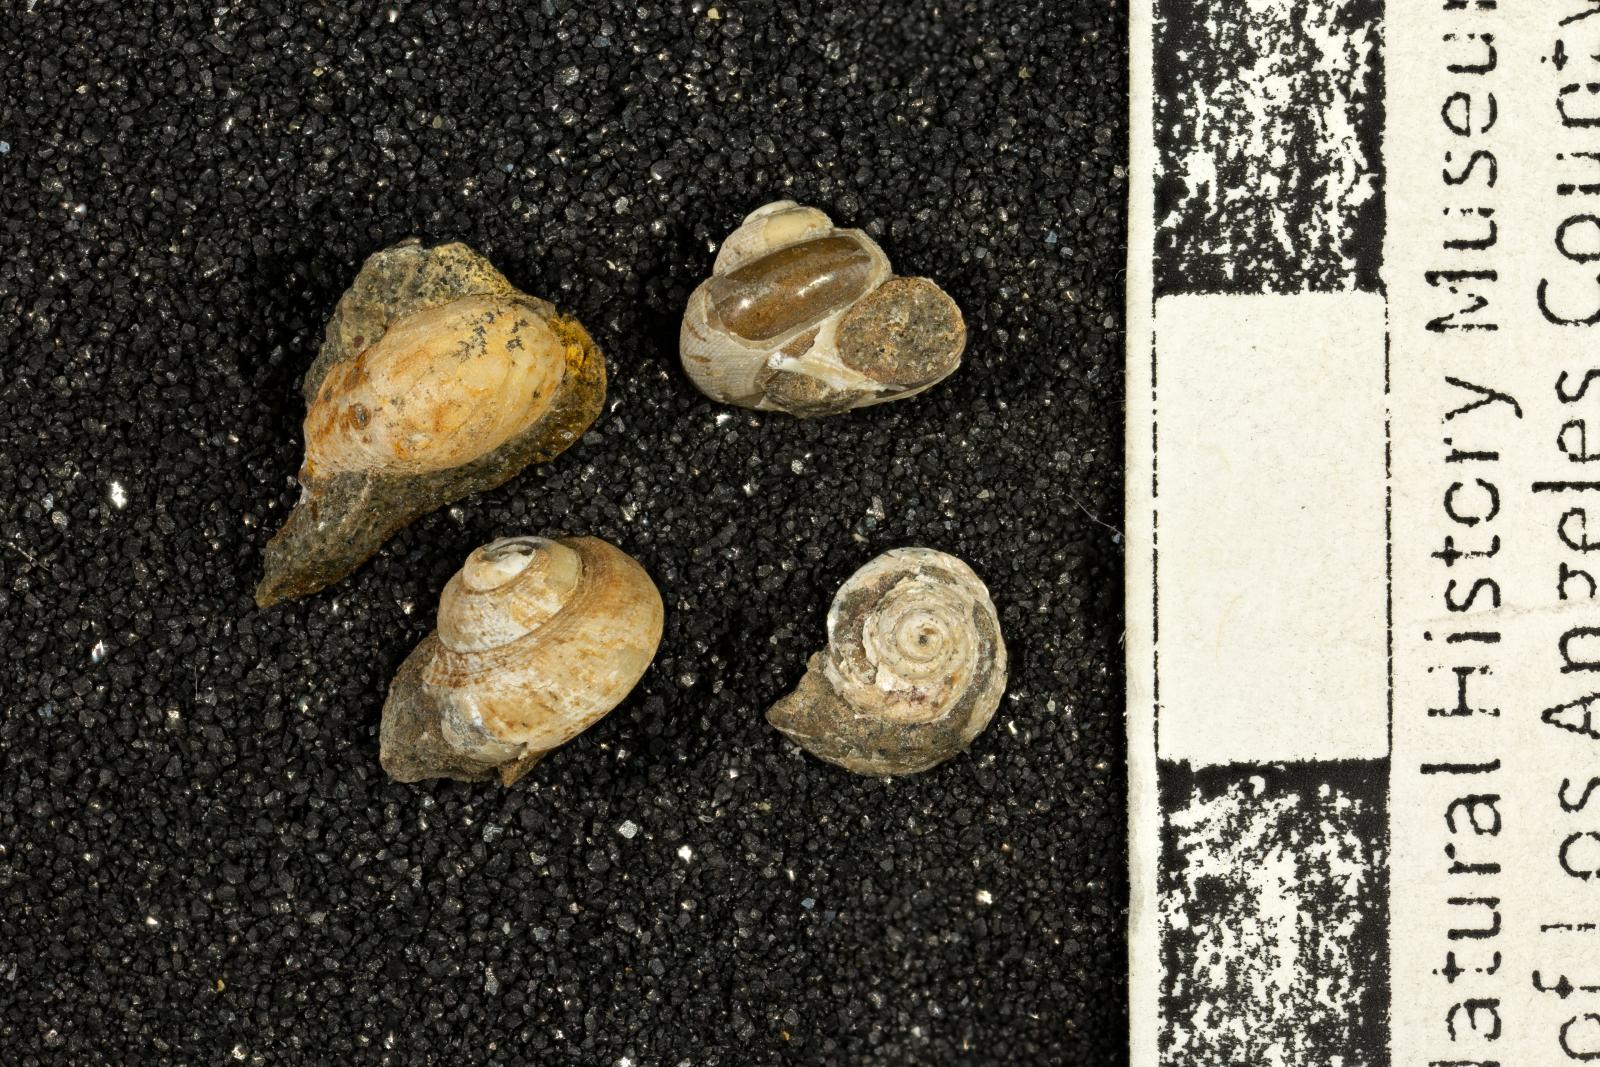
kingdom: Animalia
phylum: Mollusca
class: Bivalvia
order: Ostreida
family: Pteriidae
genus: Atira
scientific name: Atira popenoei
